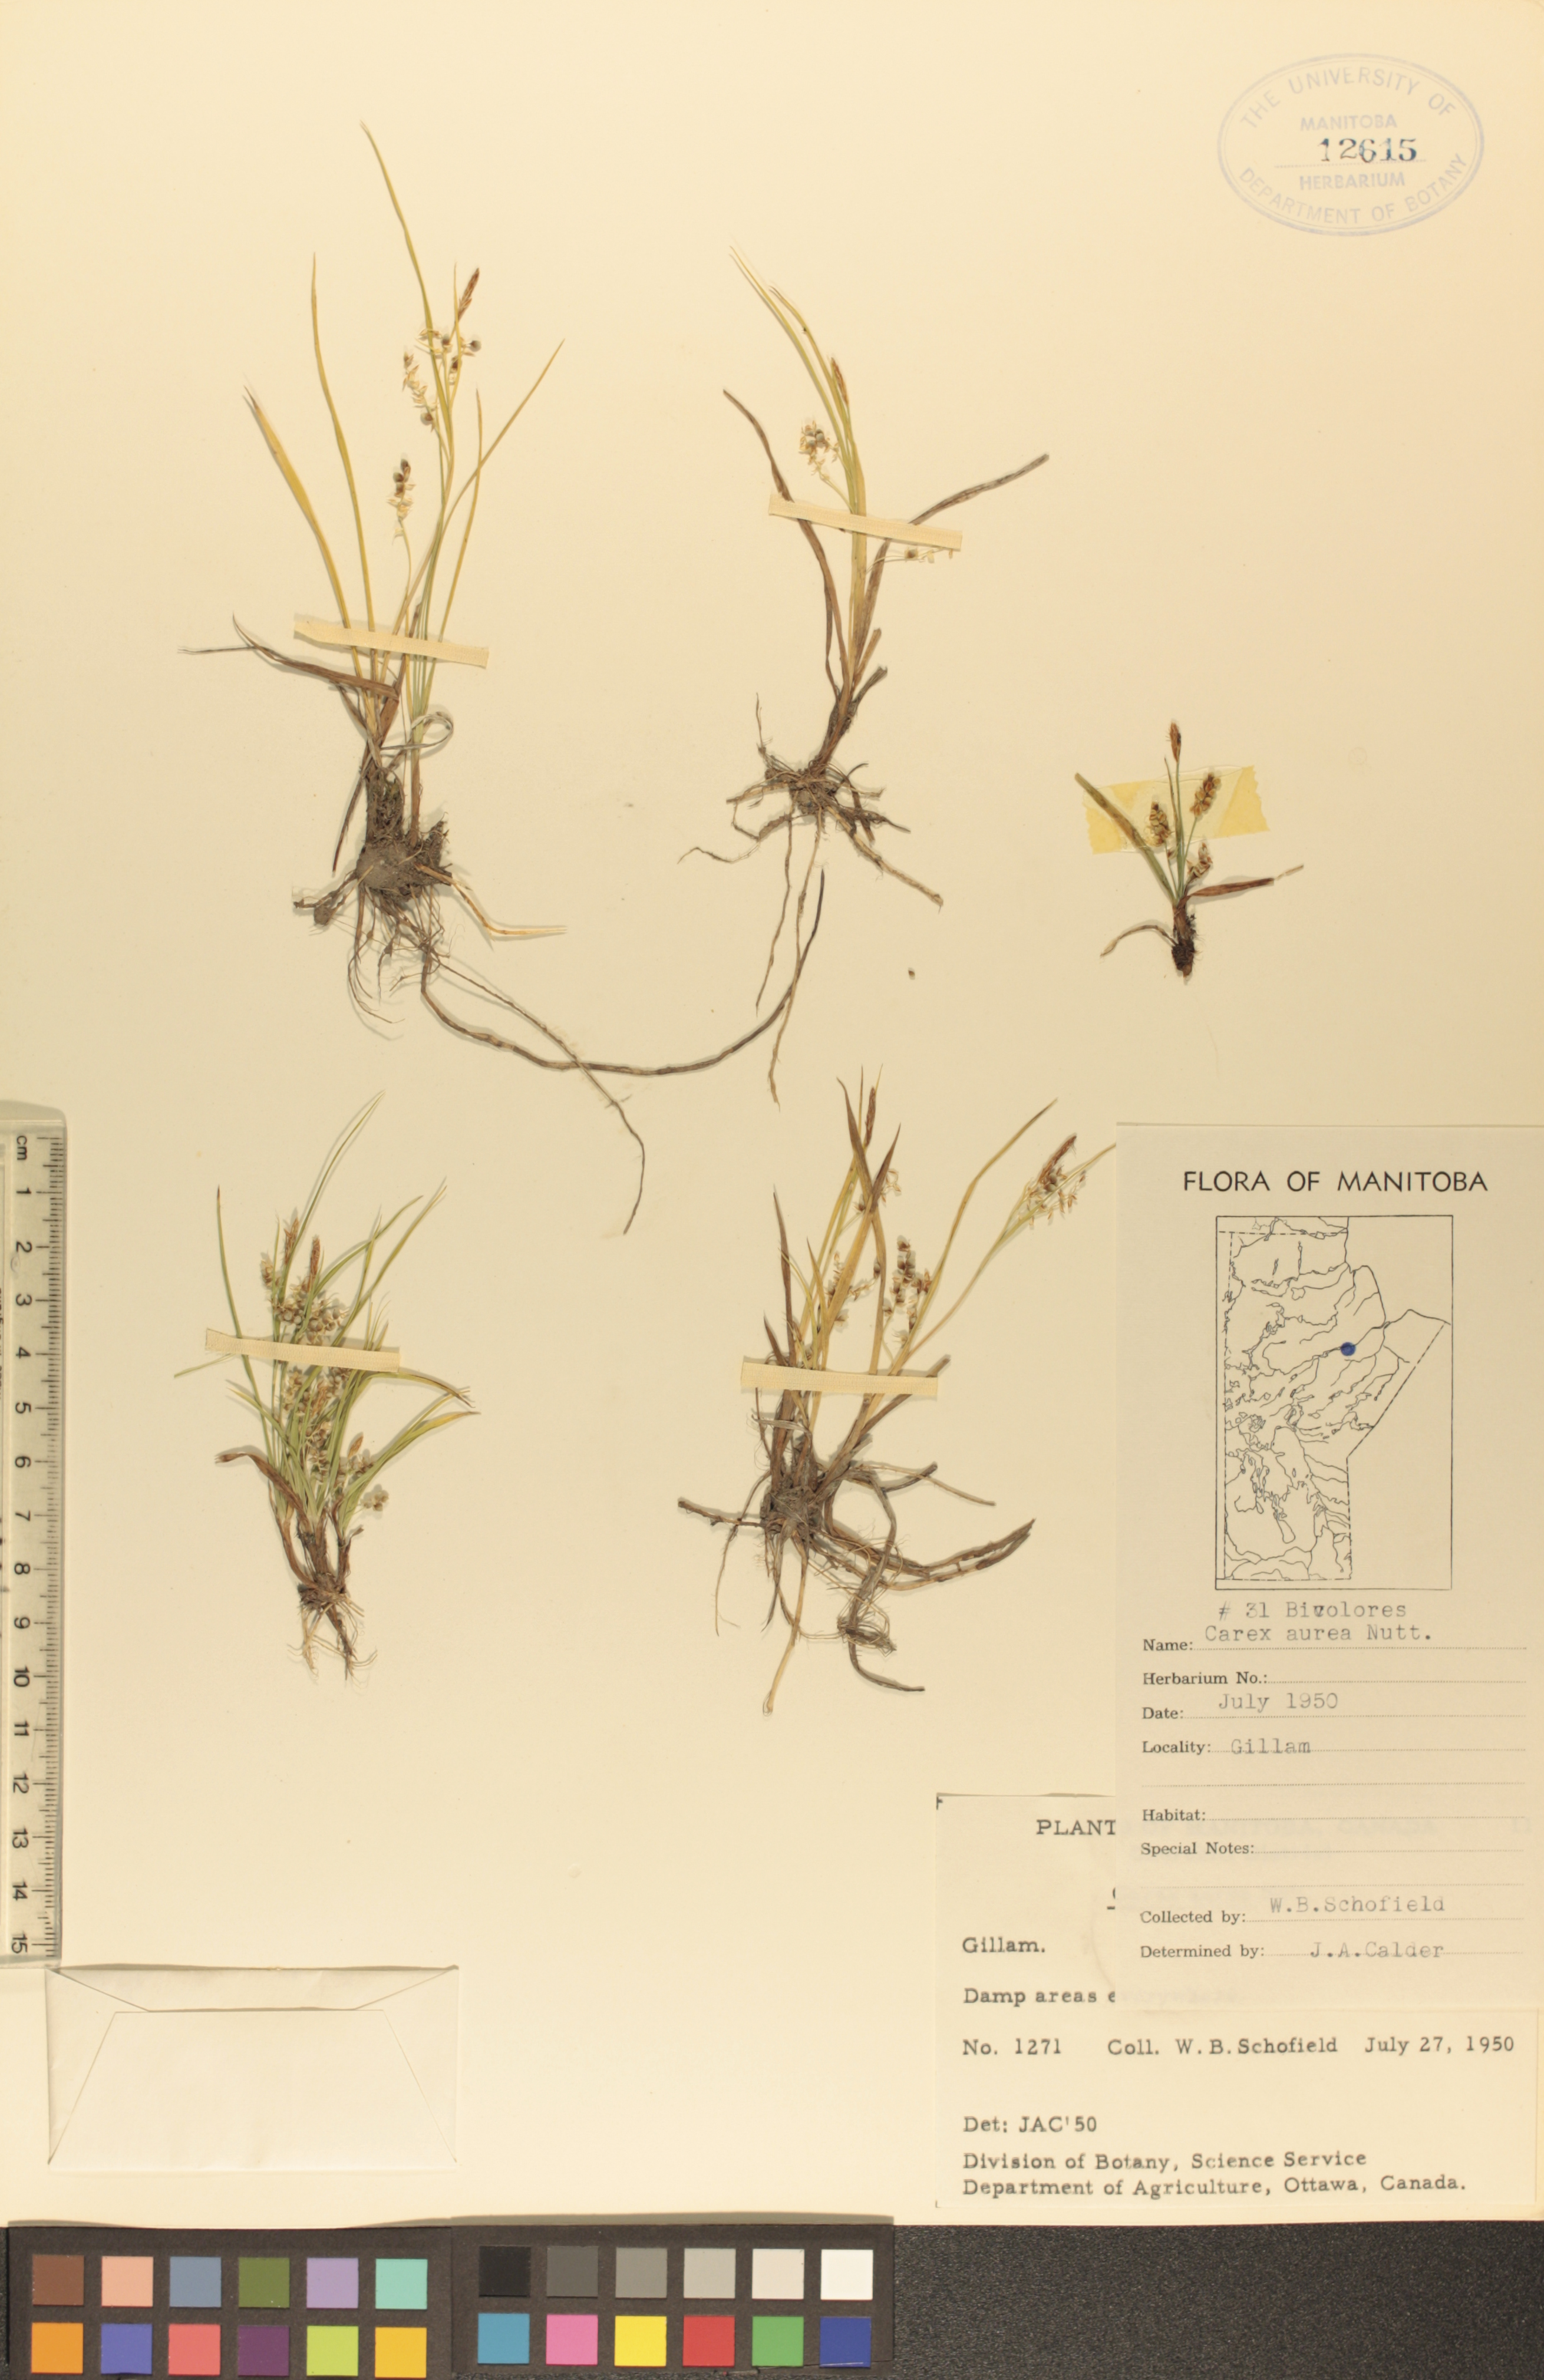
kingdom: Plantae
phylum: Tracheophyta
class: Liliopsida
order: Poales
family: Cyperaceae
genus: Carex
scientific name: Carex aurea
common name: Golden sedge
